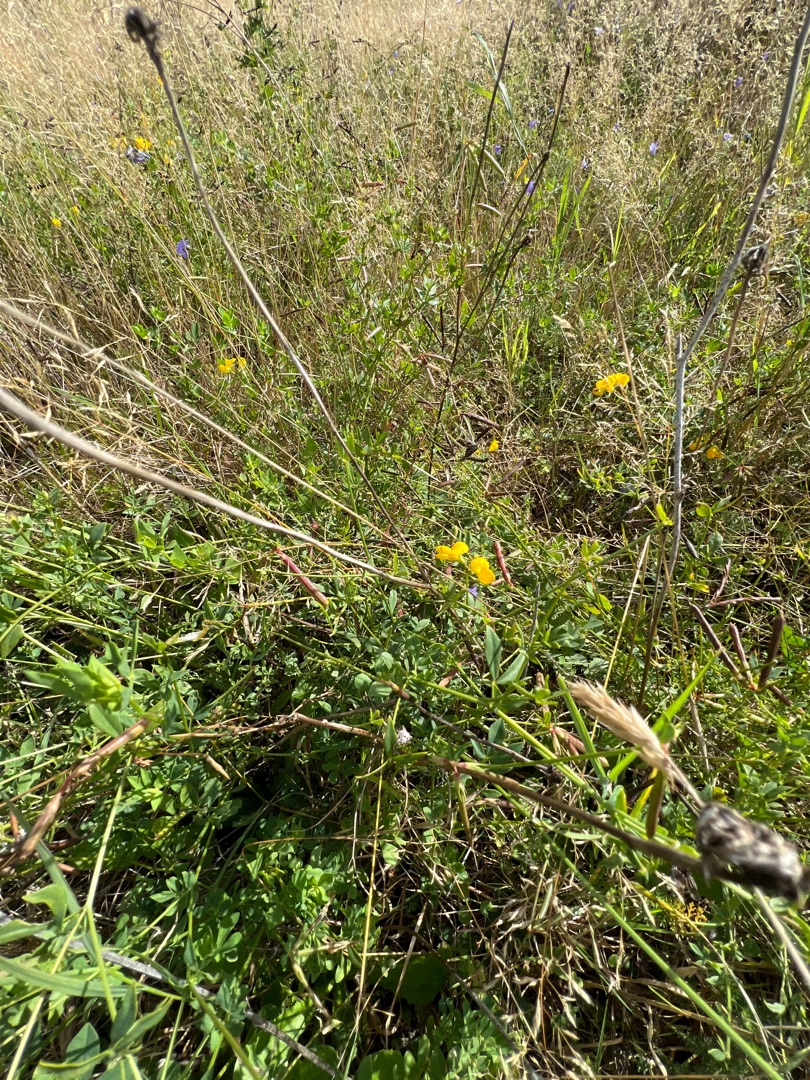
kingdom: Plantae
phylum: Tracheophyta
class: Magnoliopsida
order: Fabales
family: Fabaceae
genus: Lotus
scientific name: Lotus corniculatus
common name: Almindelig kællingetand
